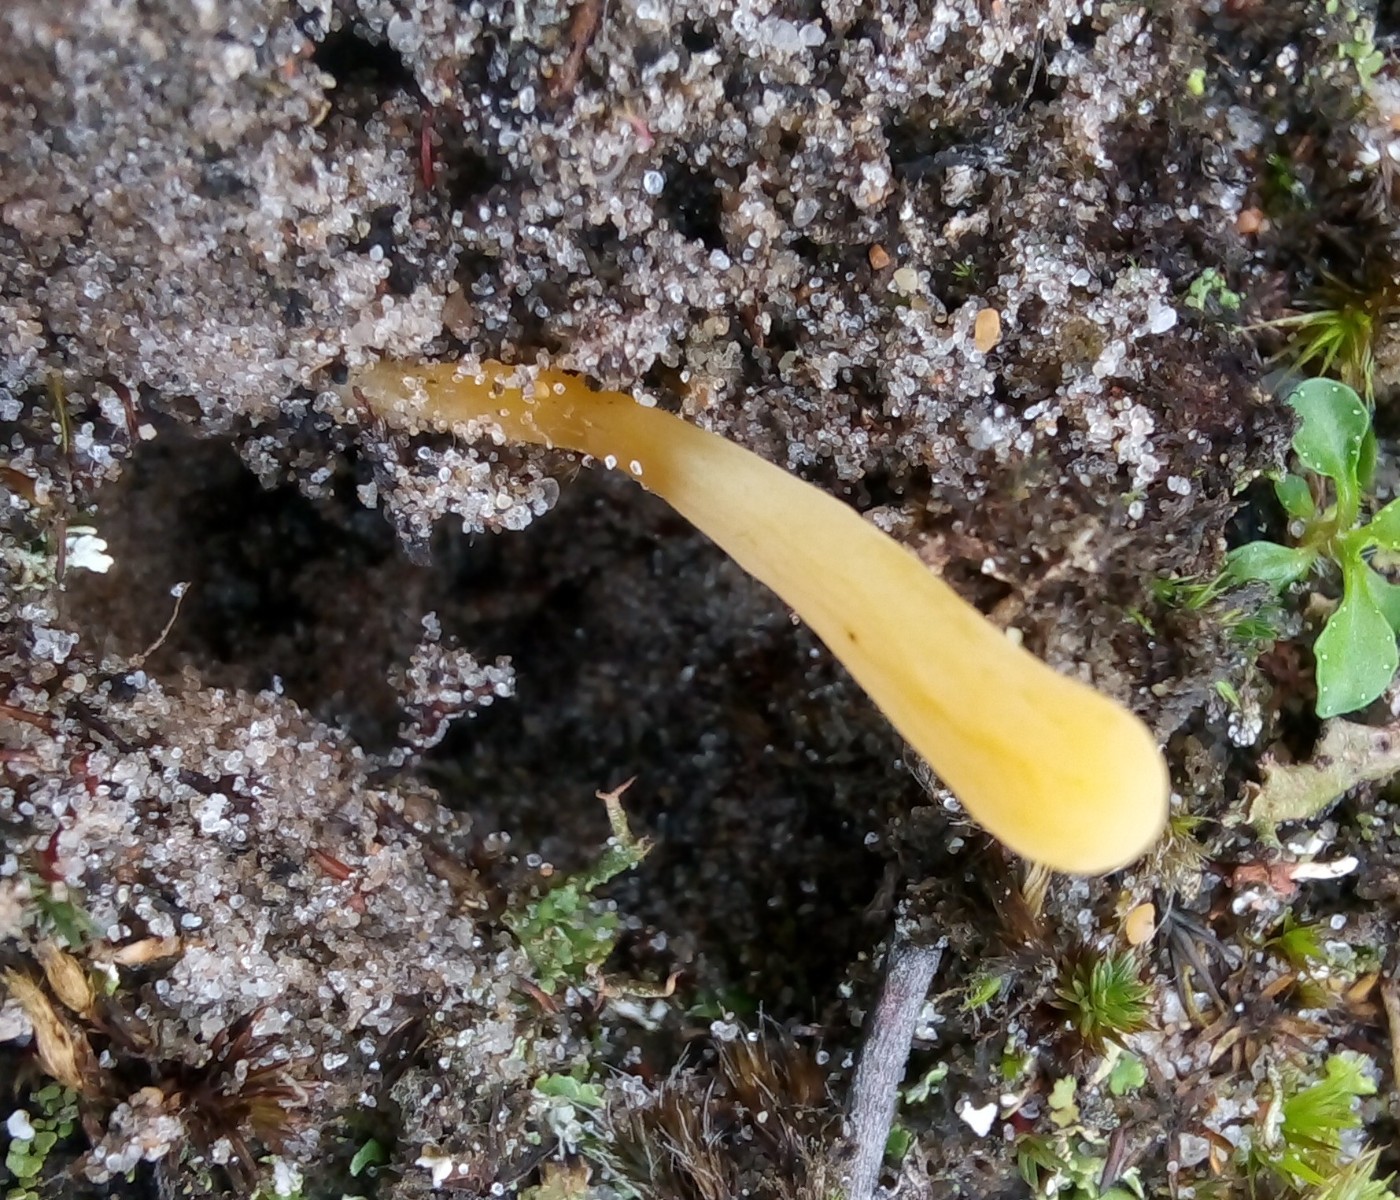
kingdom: Fungi
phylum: Basidiomycota
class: Agaricomycetes
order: Agaricales
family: Clavariaceae
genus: Clavaria
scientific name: Clavaria argillacea
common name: lerfarvet køllesvamp
